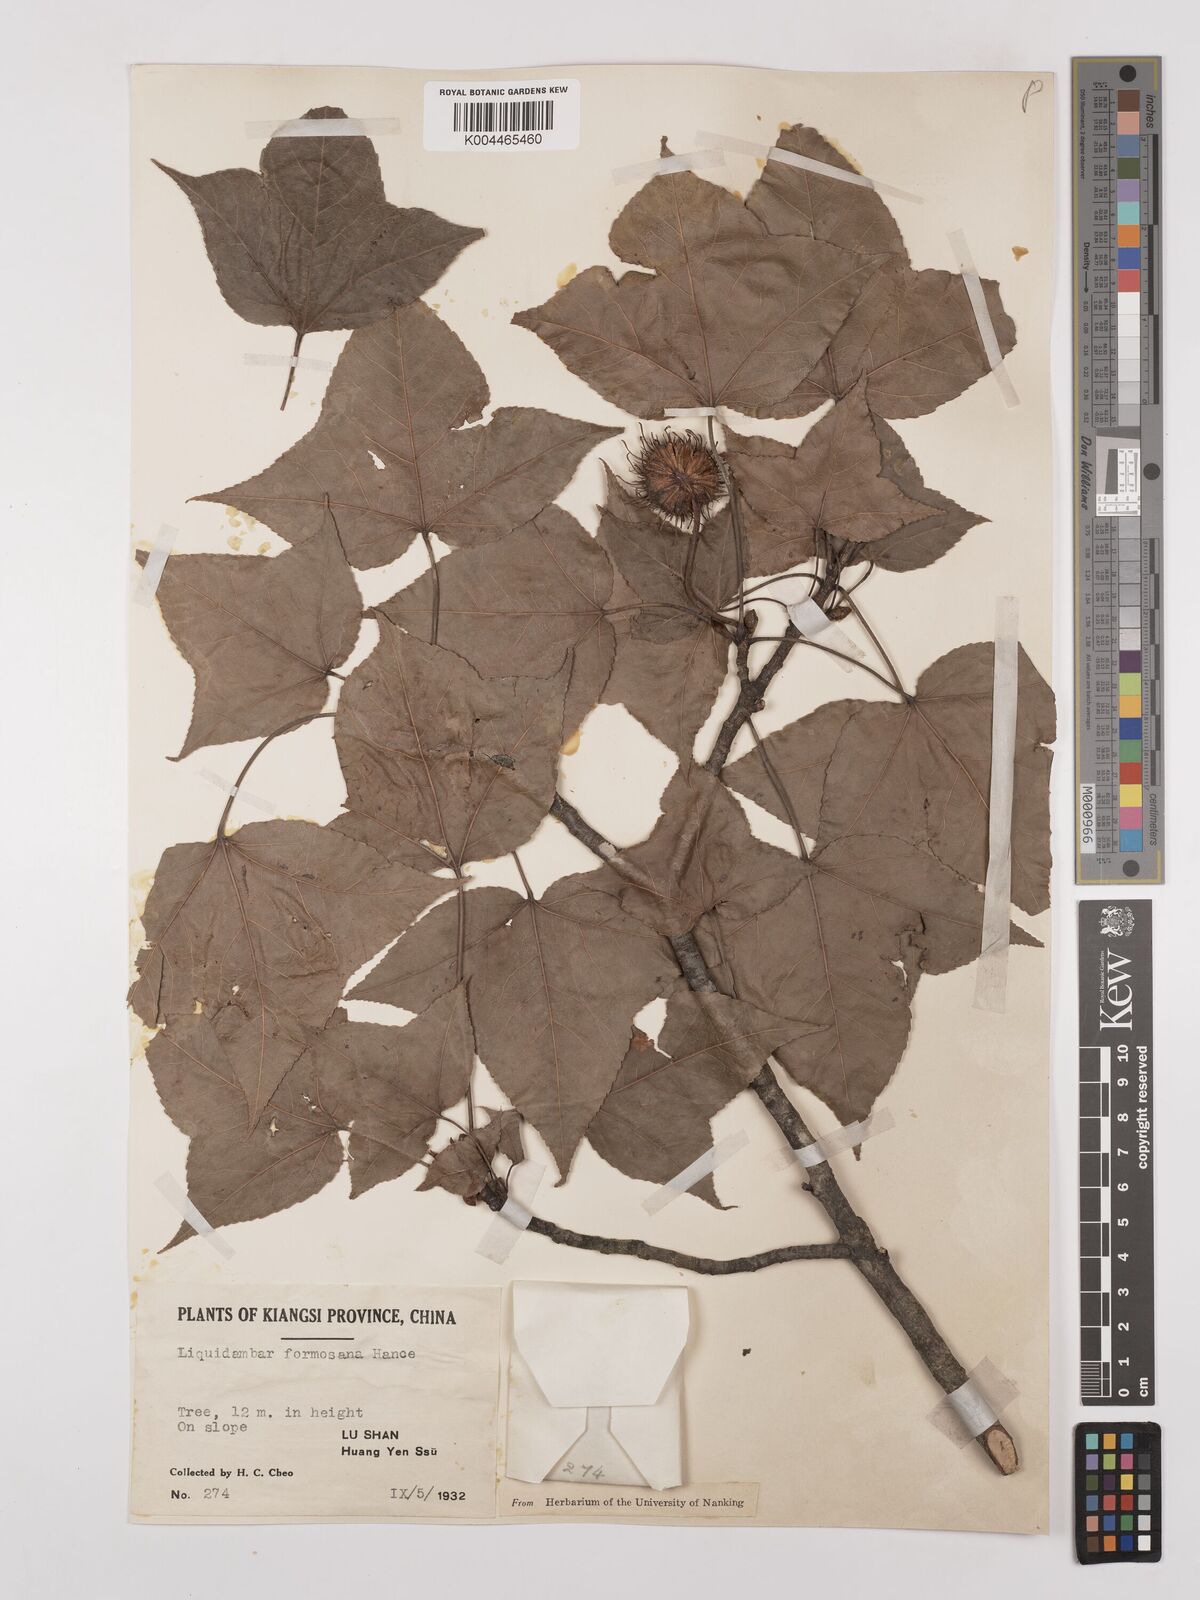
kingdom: Plantae
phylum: Tracheophyta
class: Magnoliopsida
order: Saxifragales
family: Altingiaceae
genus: Liquidambar
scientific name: Liquidambar formosana
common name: Chinese sweet gum
